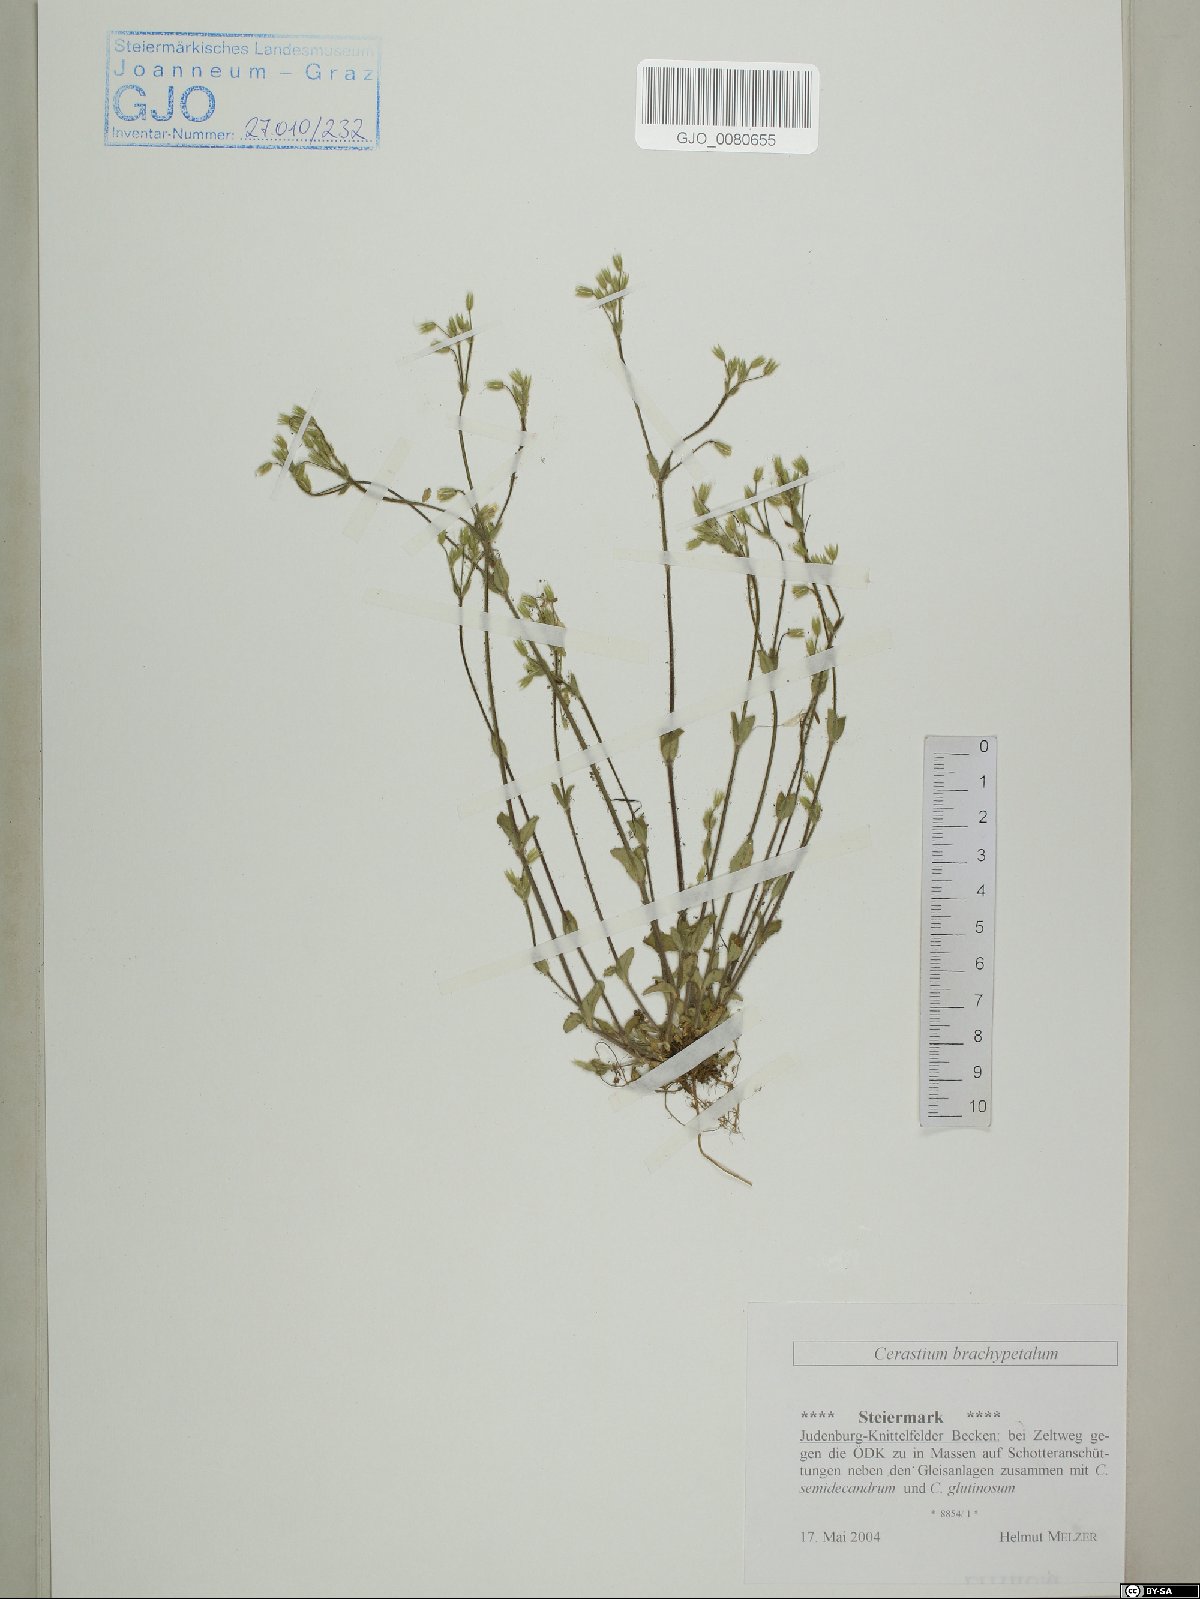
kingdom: Plantae
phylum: Tracheophyta
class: Magnoliopsida
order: Caryophyllales
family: Caryophyllaceae
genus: Cerastium
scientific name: Cerastium brachypetalum
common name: Grey mouse-ear
